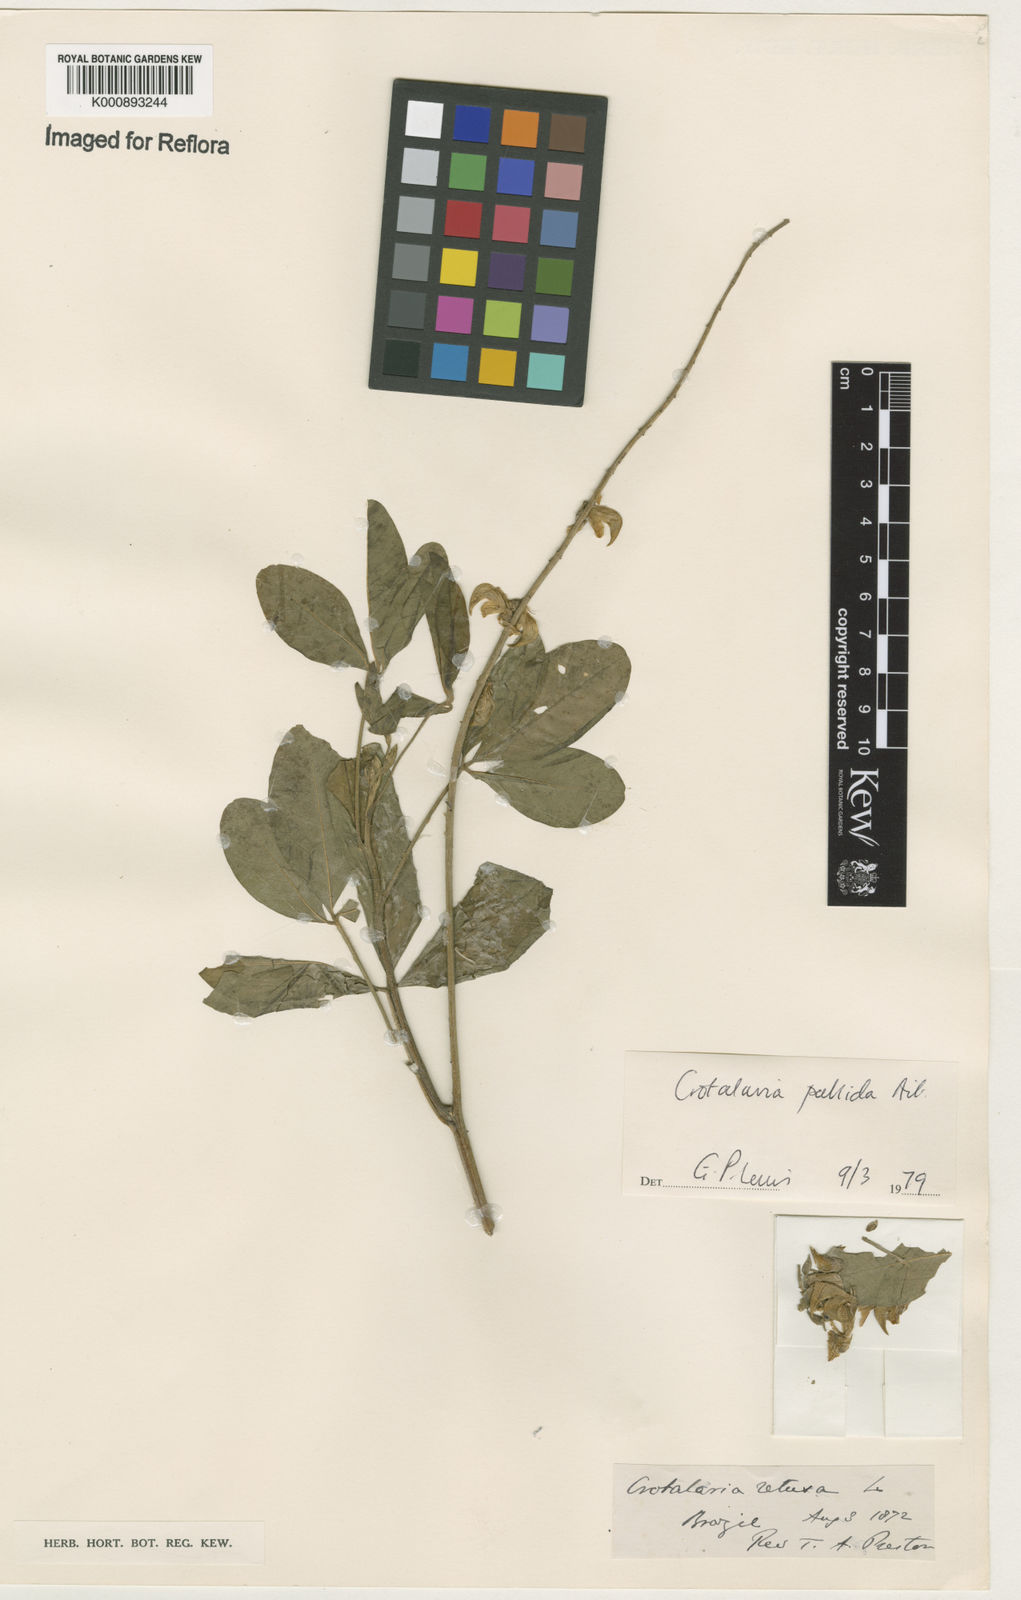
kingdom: Plantae
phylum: Tracheophyta
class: Magnoliopsida
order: Fabales
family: Fabaceae
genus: Crotalaria
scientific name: Crotalaria pallida
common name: Smooth rattlebox
